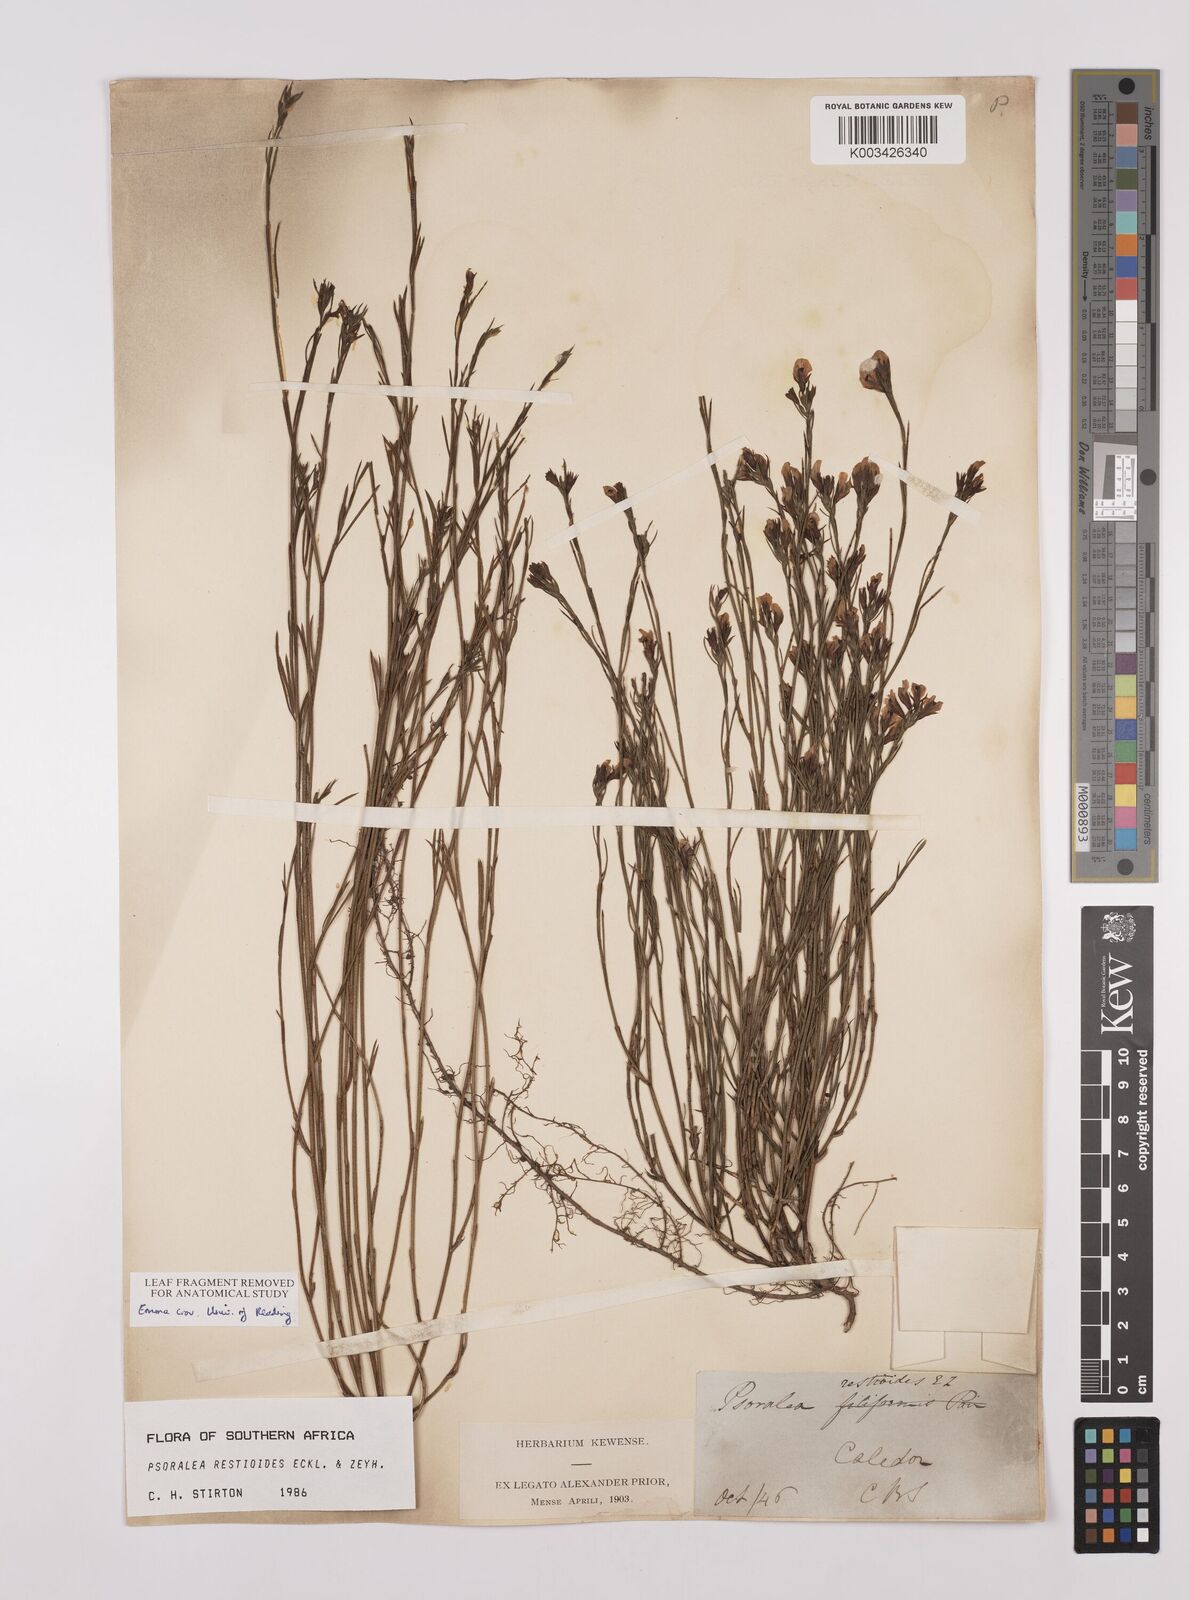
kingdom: Plantae
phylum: Tracheophyta
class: Magnoliopsida
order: Fabales
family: Fabaceae
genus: Psoralea
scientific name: Psoralea restioides
